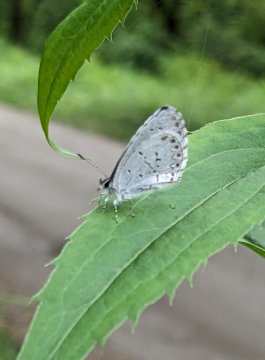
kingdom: Animalia
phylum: Arthropoda
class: Insecta
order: Lepidoptera
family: Lycaenidae
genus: Celastrina
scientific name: Celastrina
